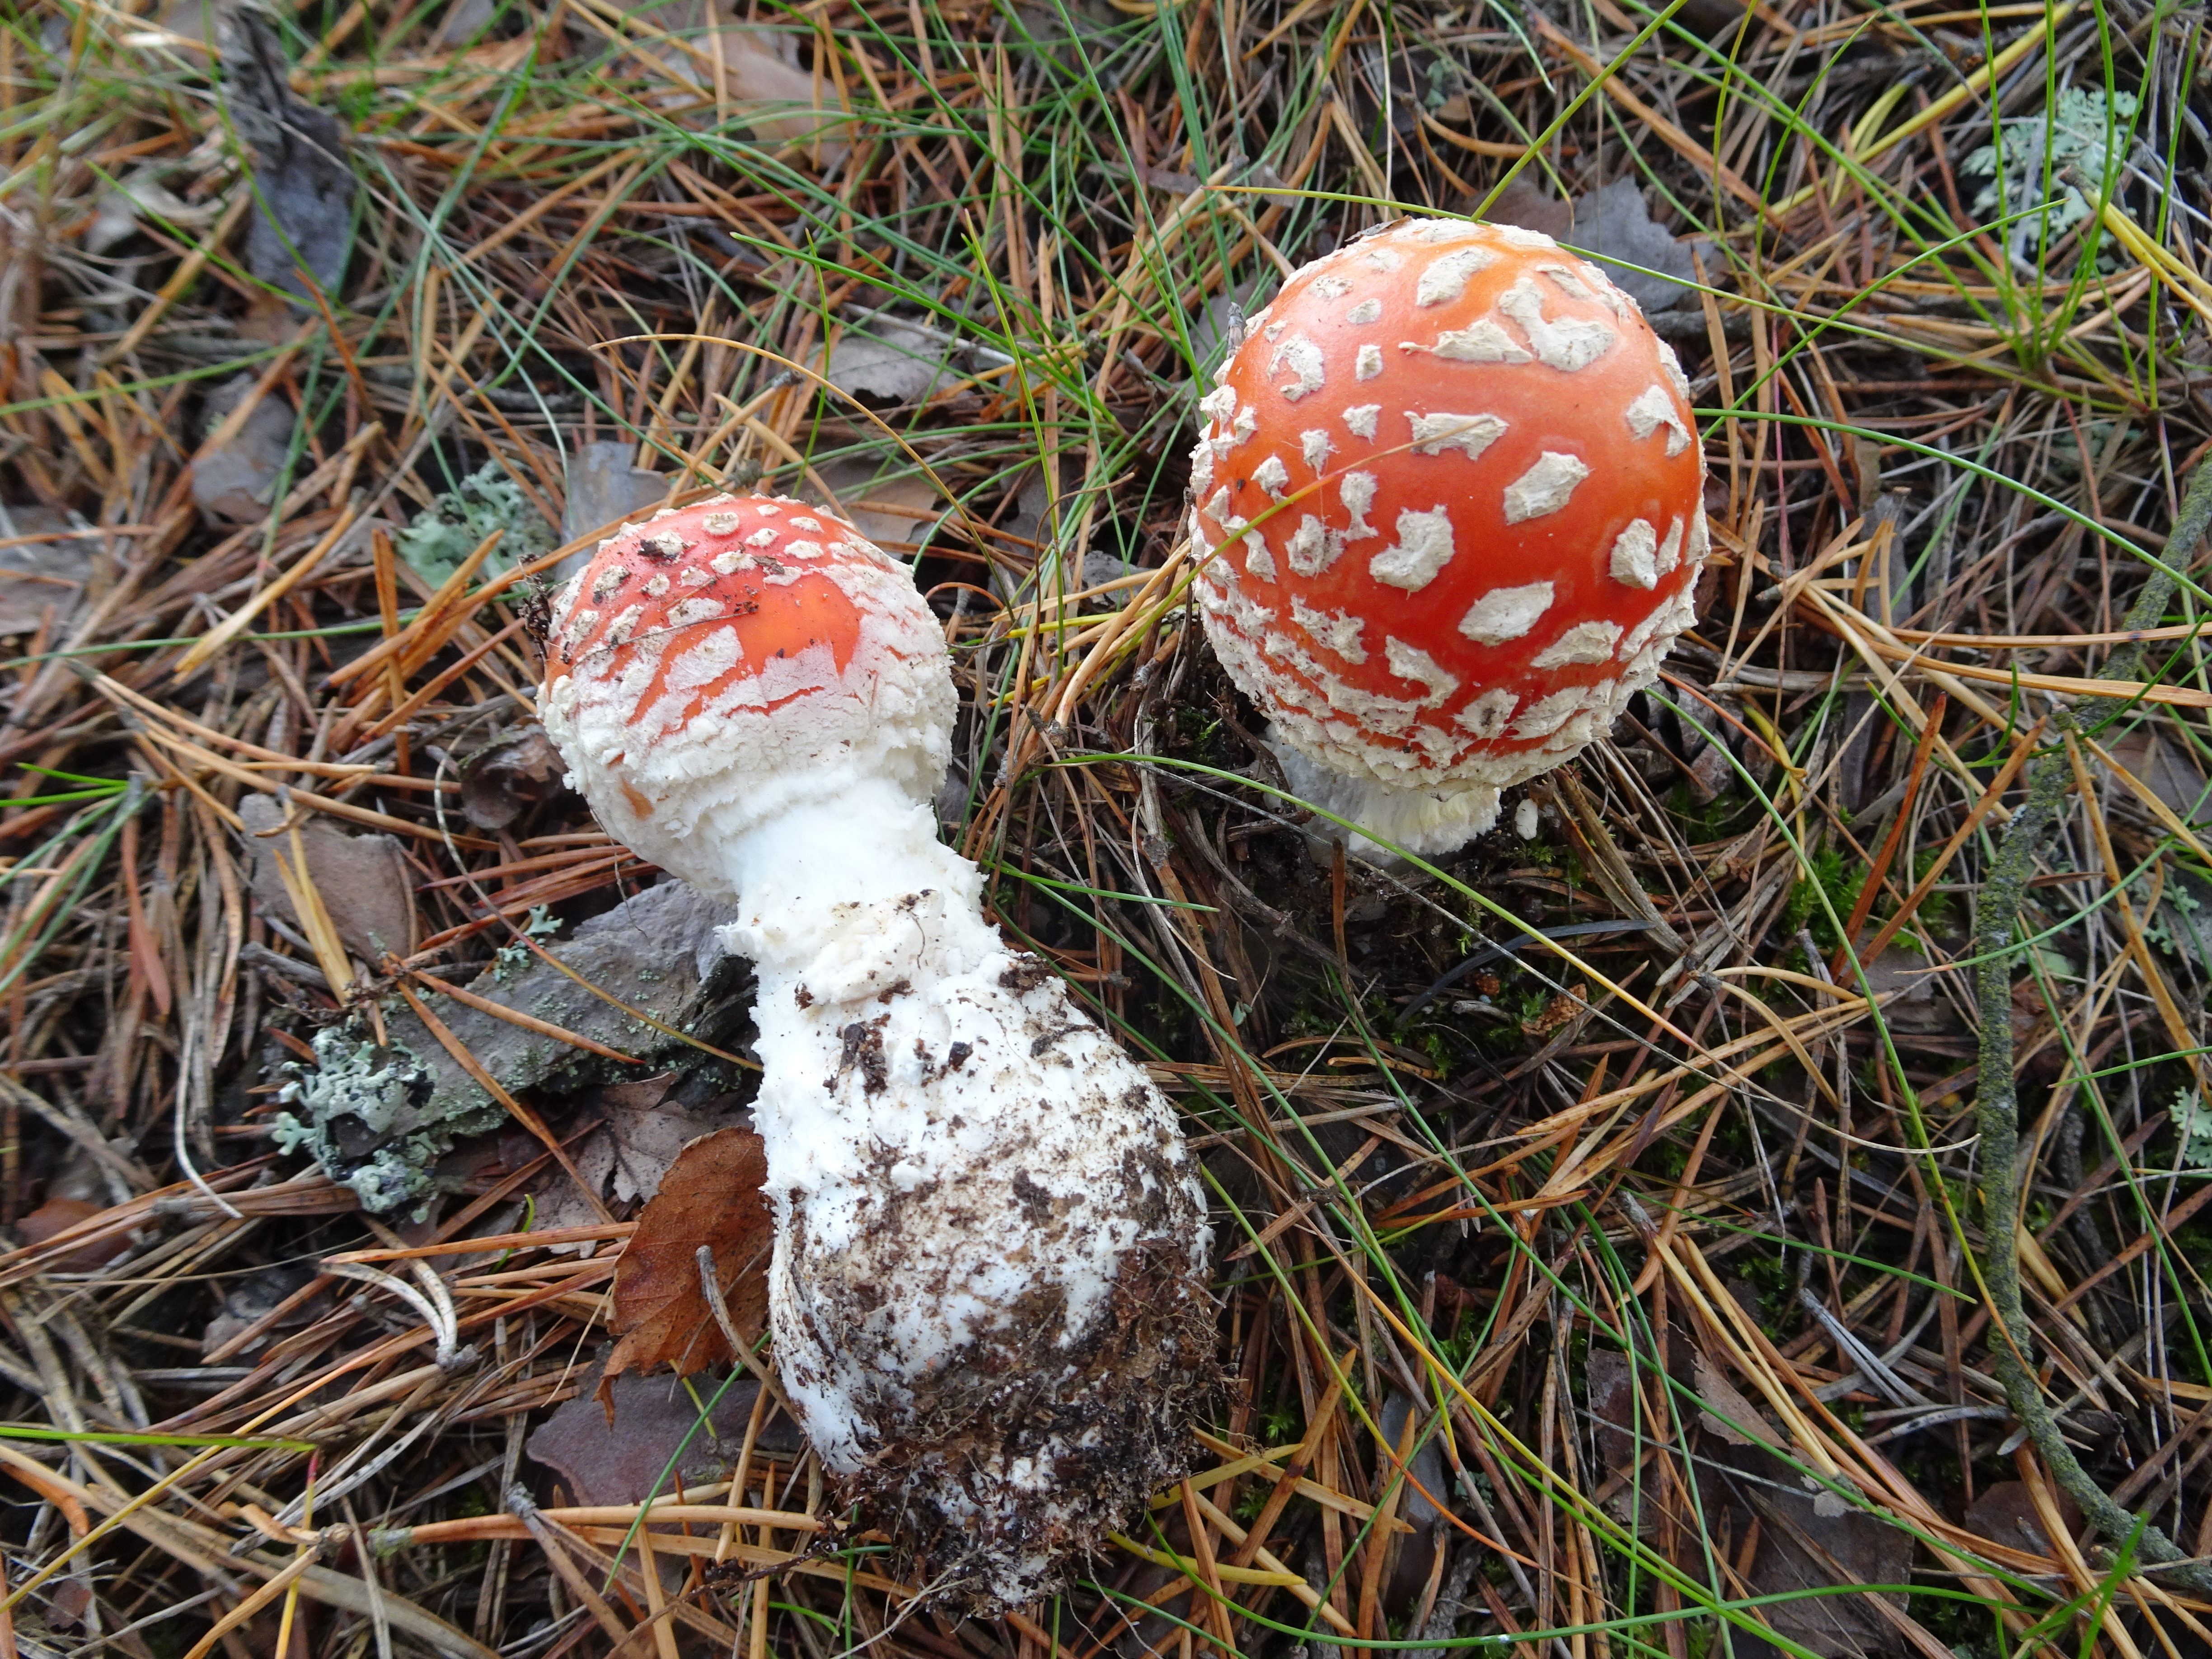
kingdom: Fungi
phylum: Basidiomycota
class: Agaricomycetes
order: Agaricales
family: Amanitaceae
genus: Amanita
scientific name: Amanita muscaria
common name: Fly agaric
